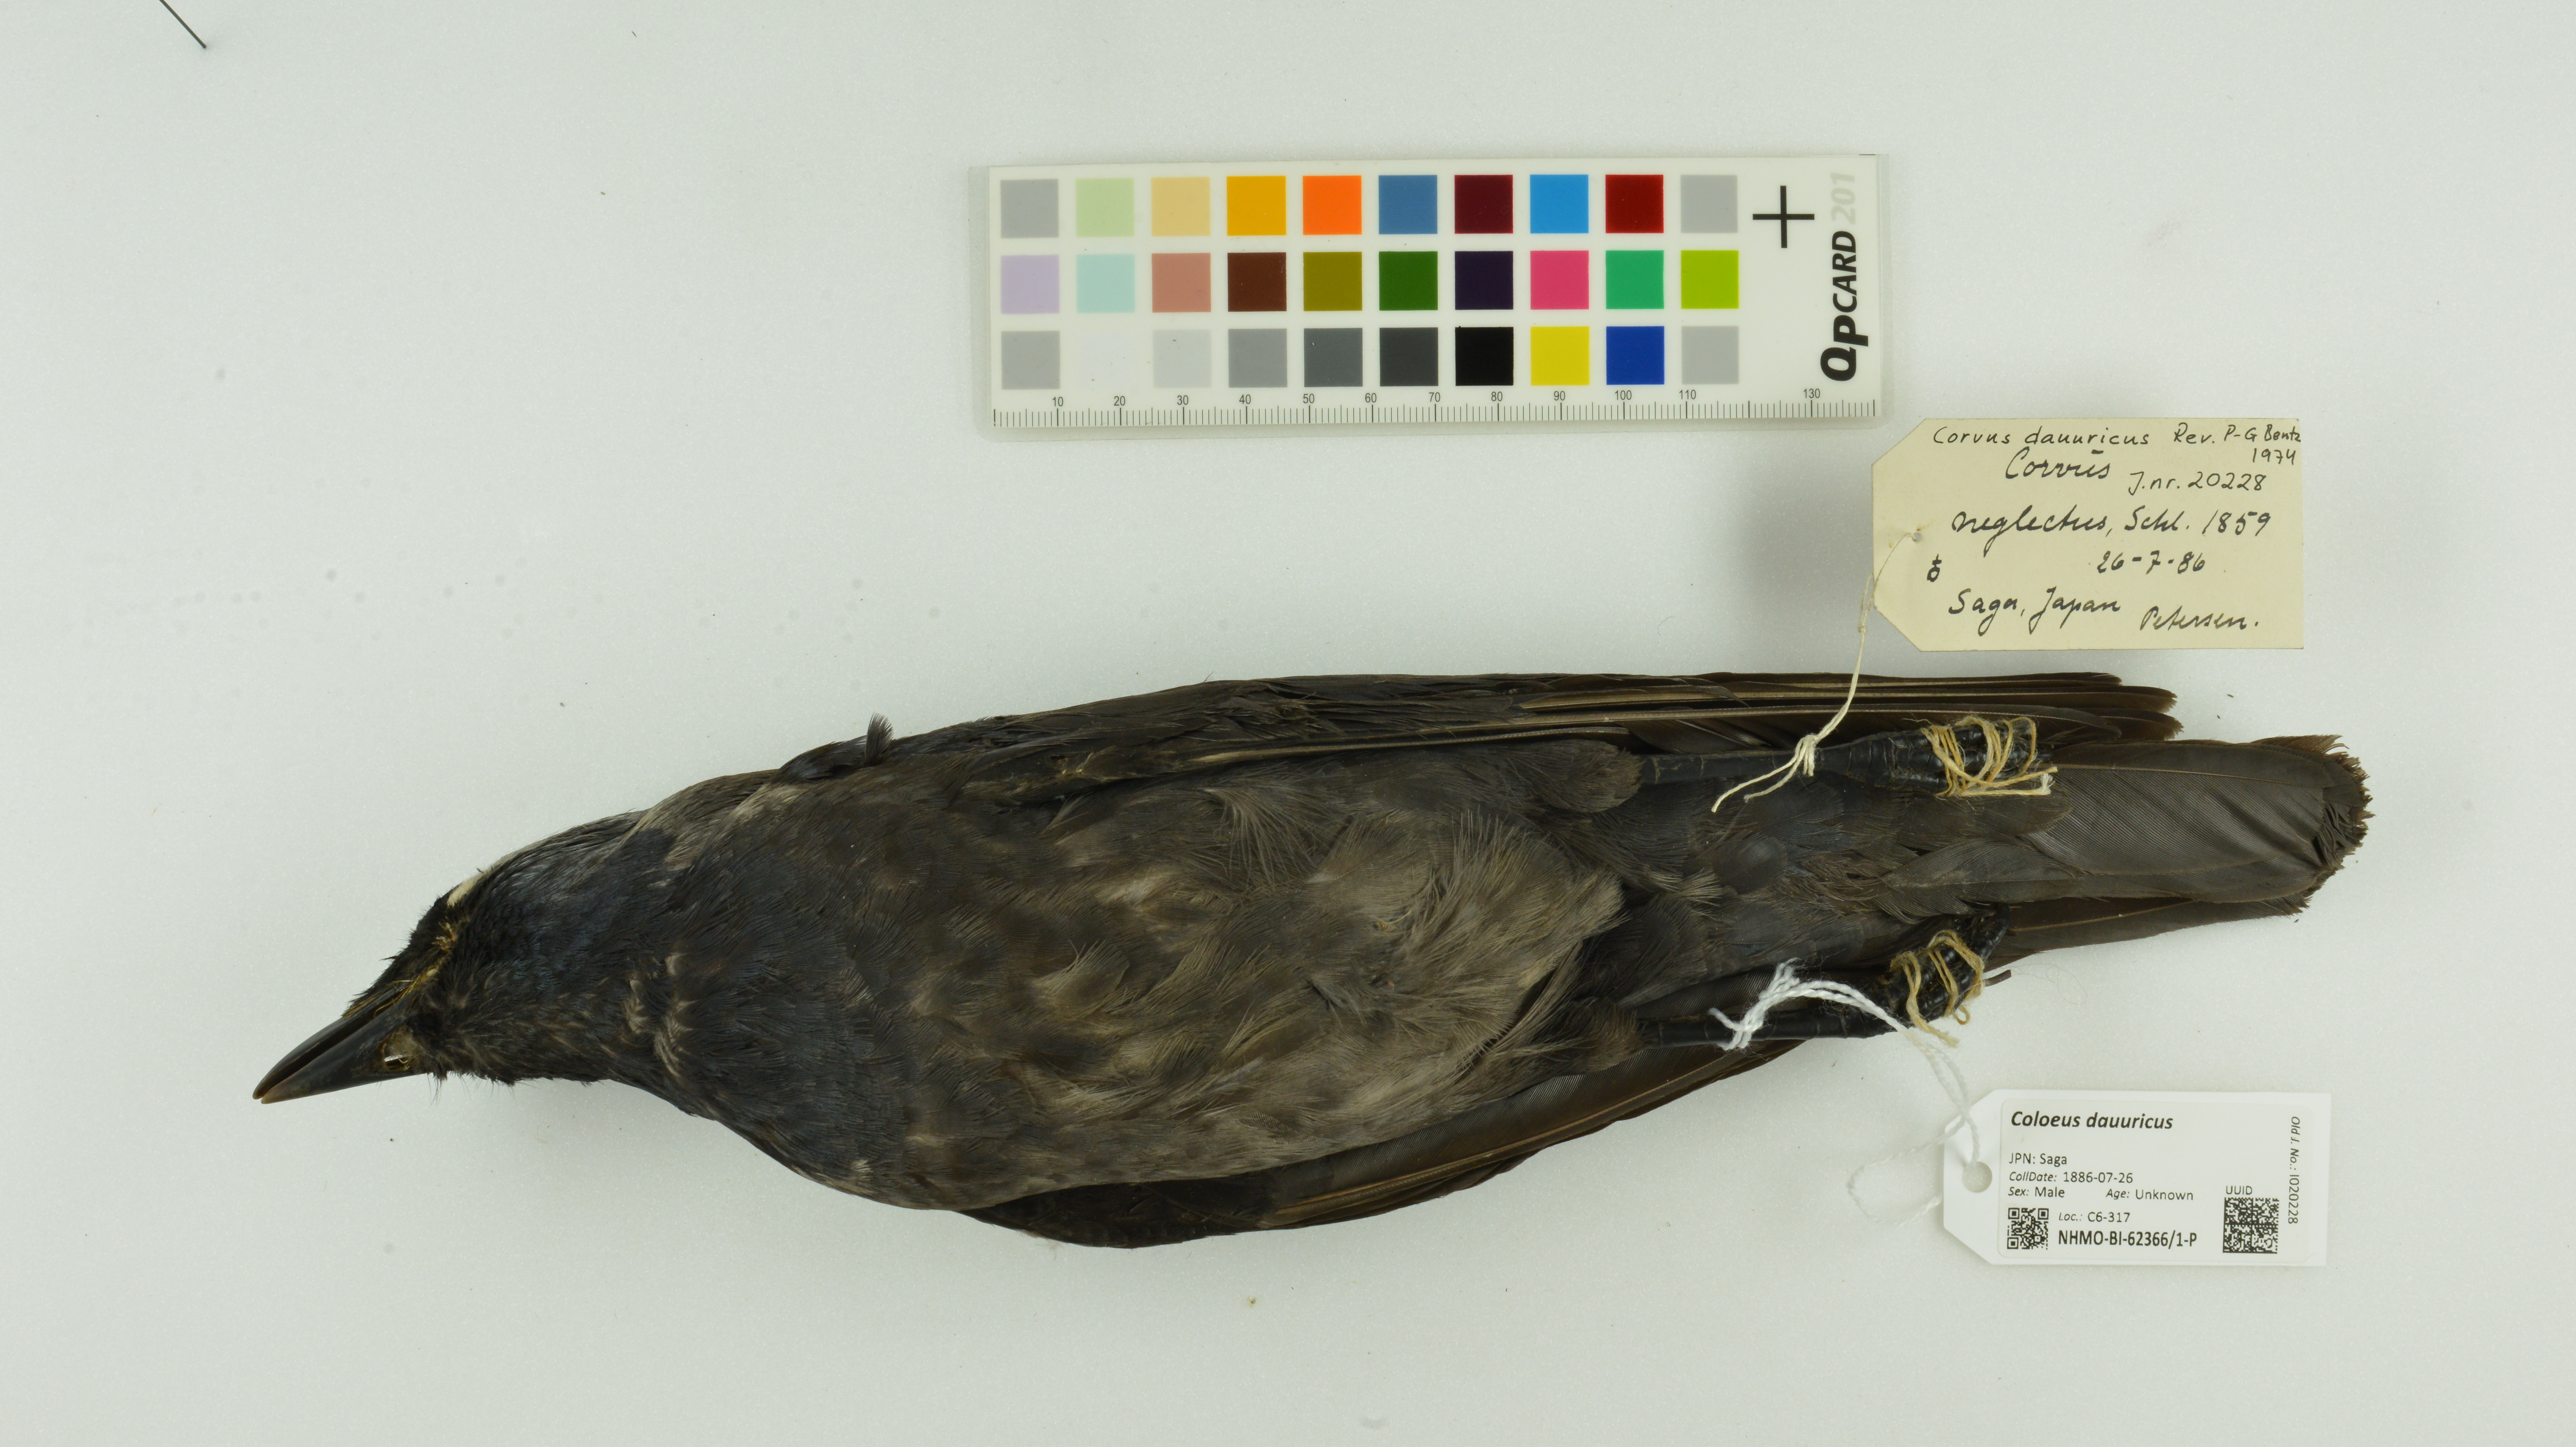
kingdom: Animalia
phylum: Chordata
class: Aves
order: Passeriformes
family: Corvidae
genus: Coloeus
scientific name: Coloeus dauuricus
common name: Daurian jackdaw
